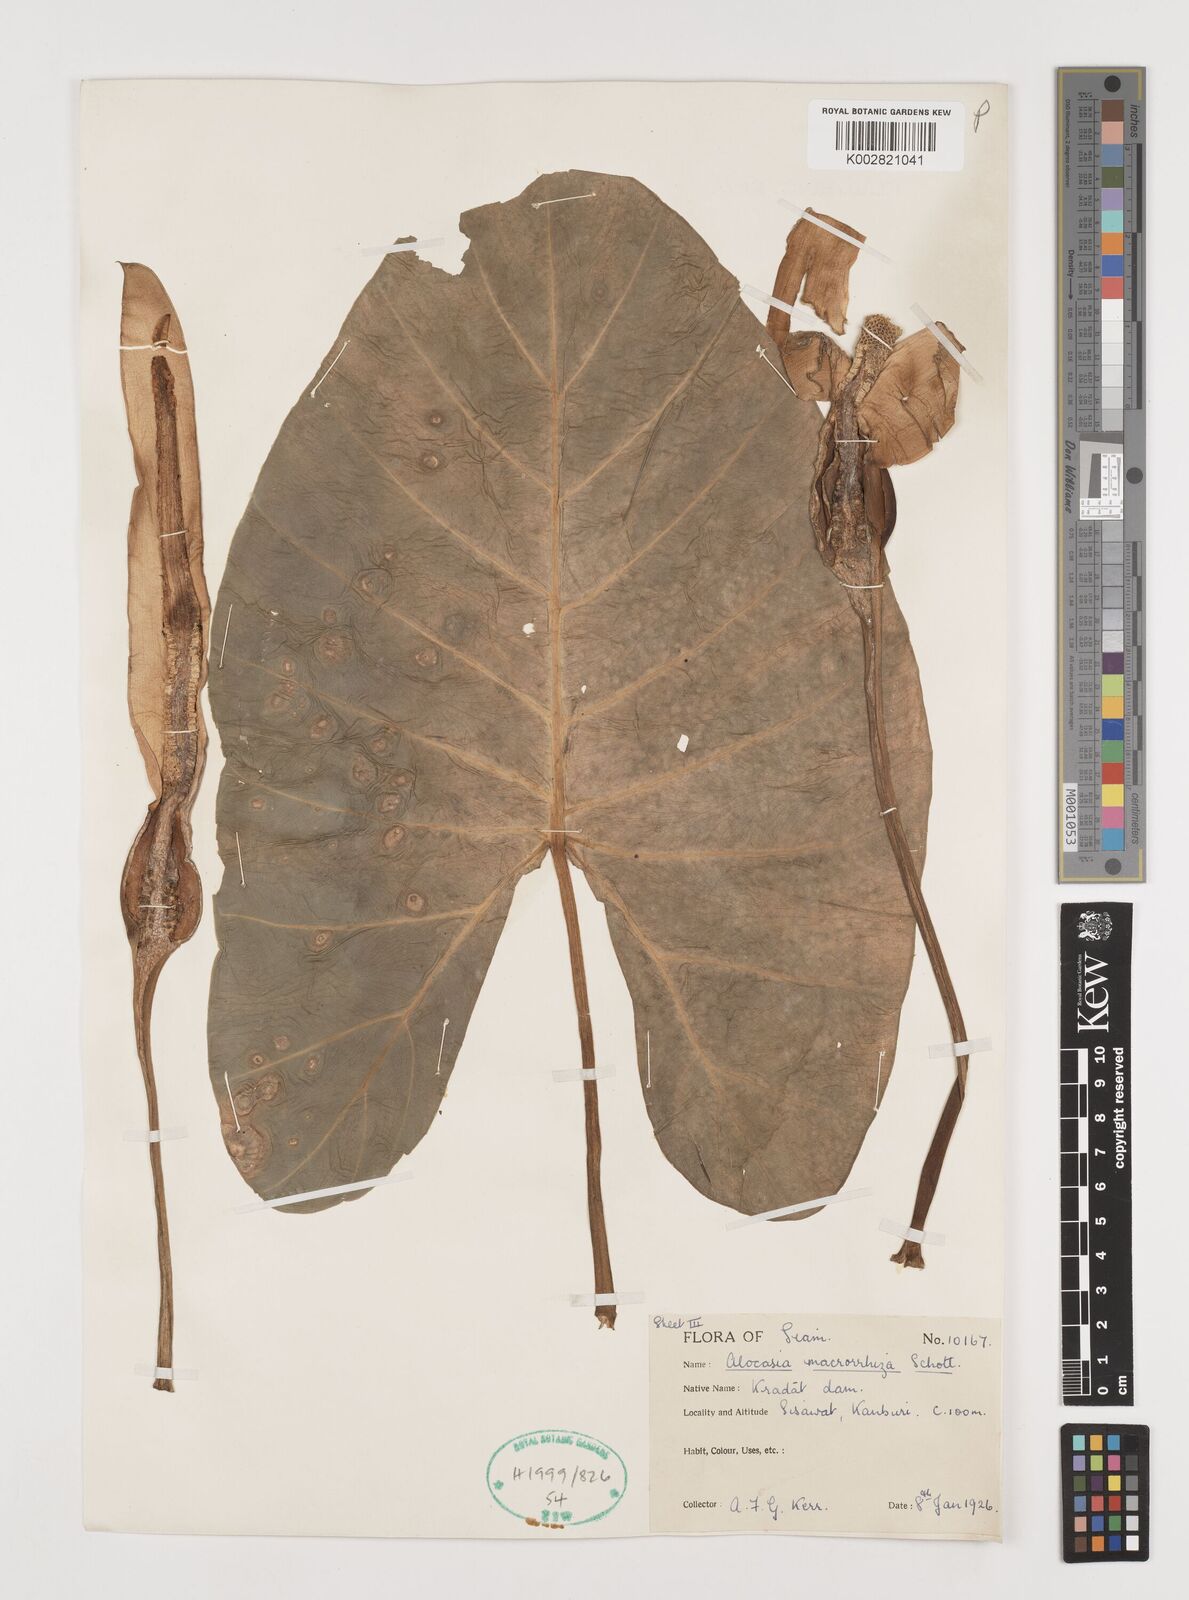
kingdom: Plantae
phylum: Tracheophyta
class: Liliopsida
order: Alismatales
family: Araceae
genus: Alocasia
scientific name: Alocasia macrorrhizos
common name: Giant taro
